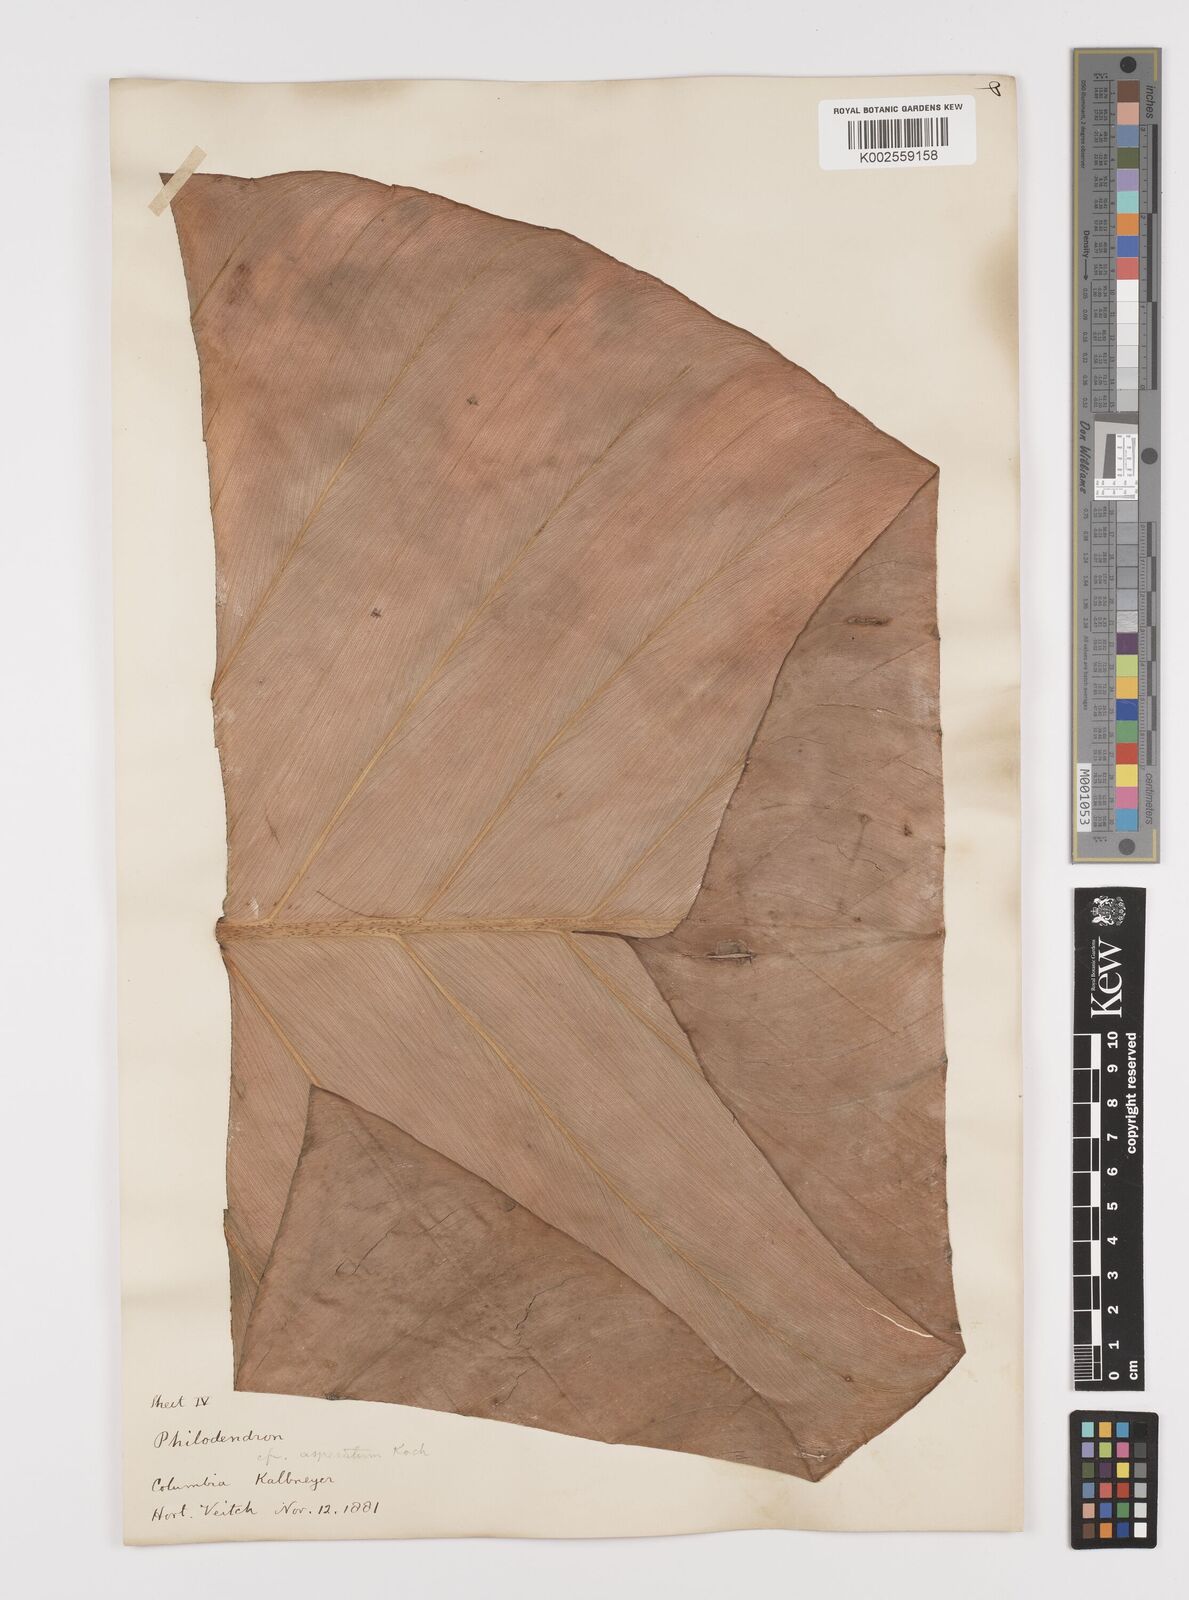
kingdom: Plantae
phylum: Tracheophyta
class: Liliopsida
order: Alismatales
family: Araceae
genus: Philodendron
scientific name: Philodendron ornatum
